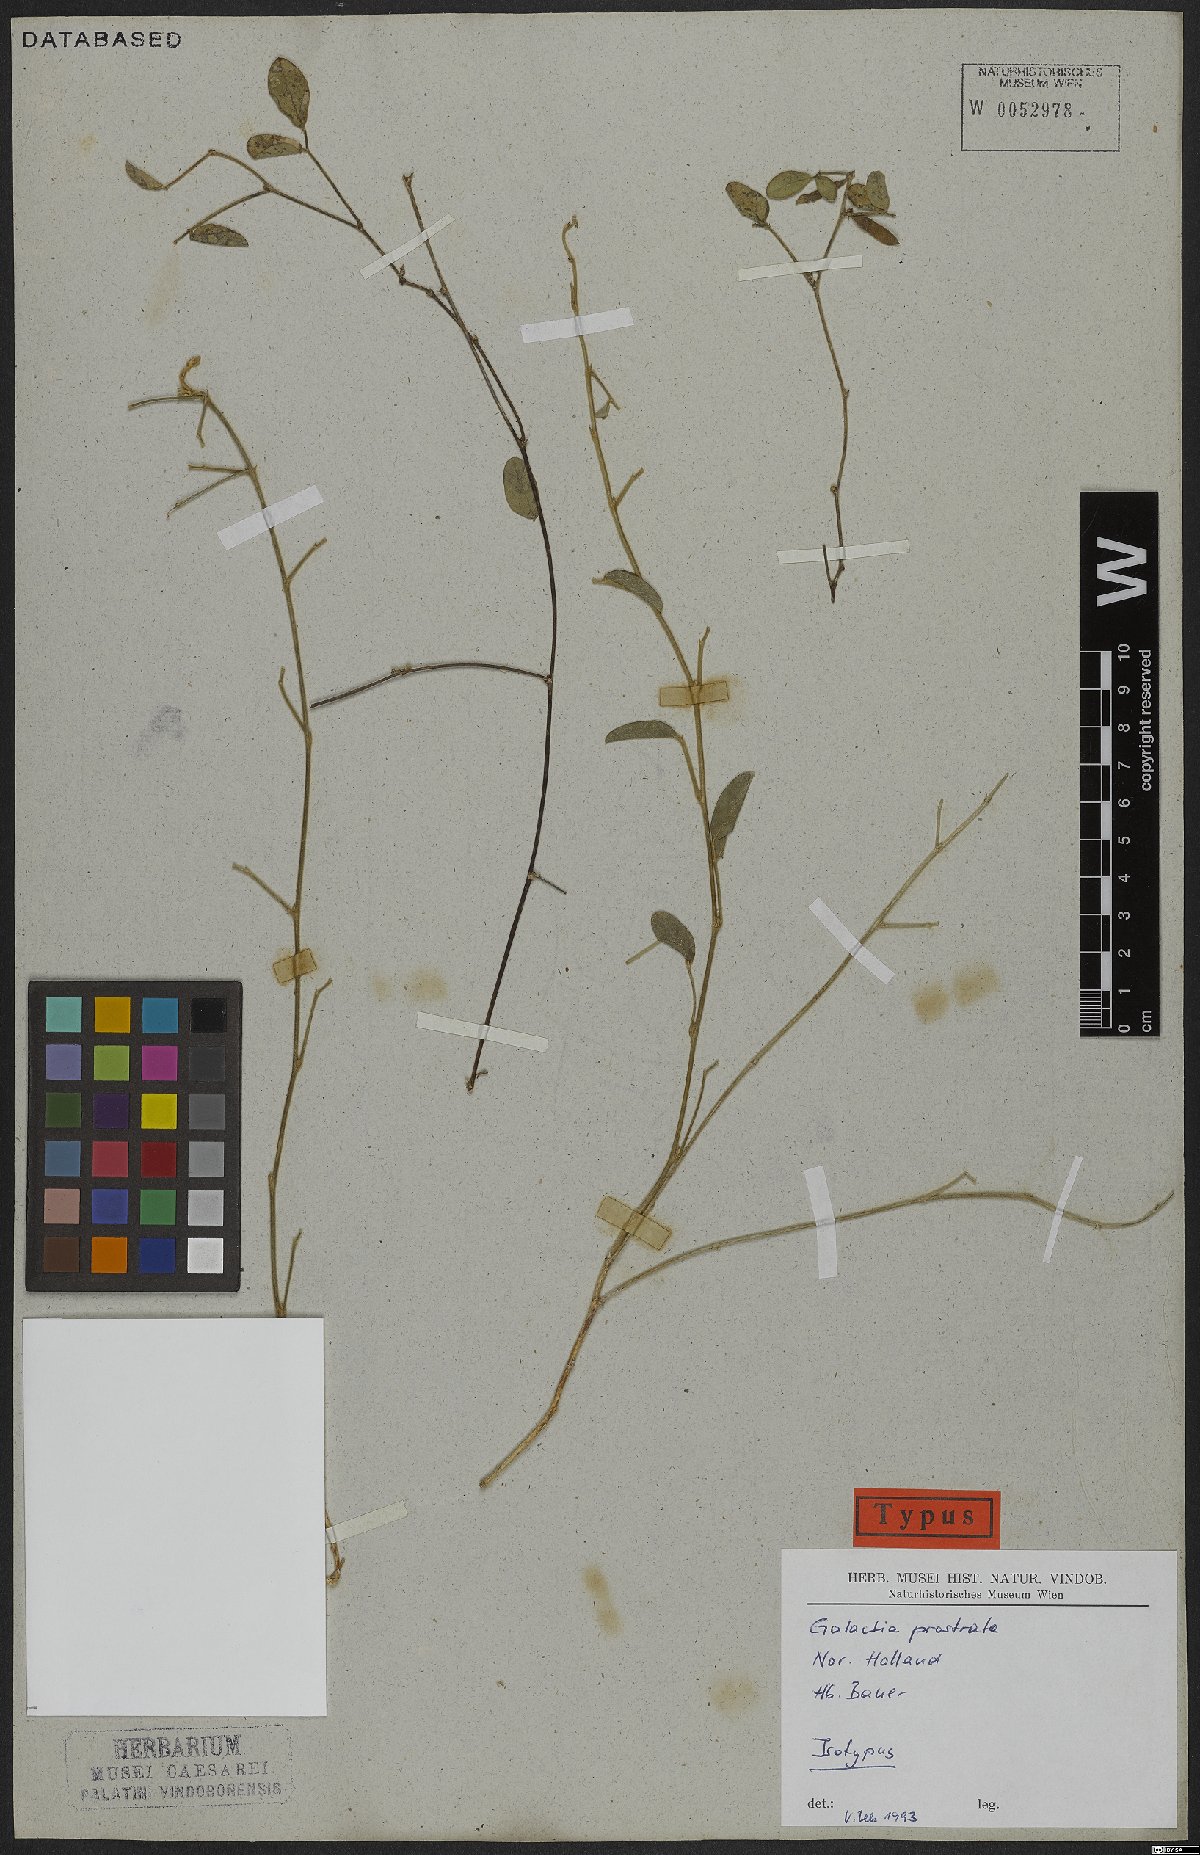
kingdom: Plantae
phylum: Tracheophyta
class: Magnoliopsida
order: Fabales
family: Fabaceae
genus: Galactia
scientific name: Galactia striata
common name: Florida hammock milkpea
